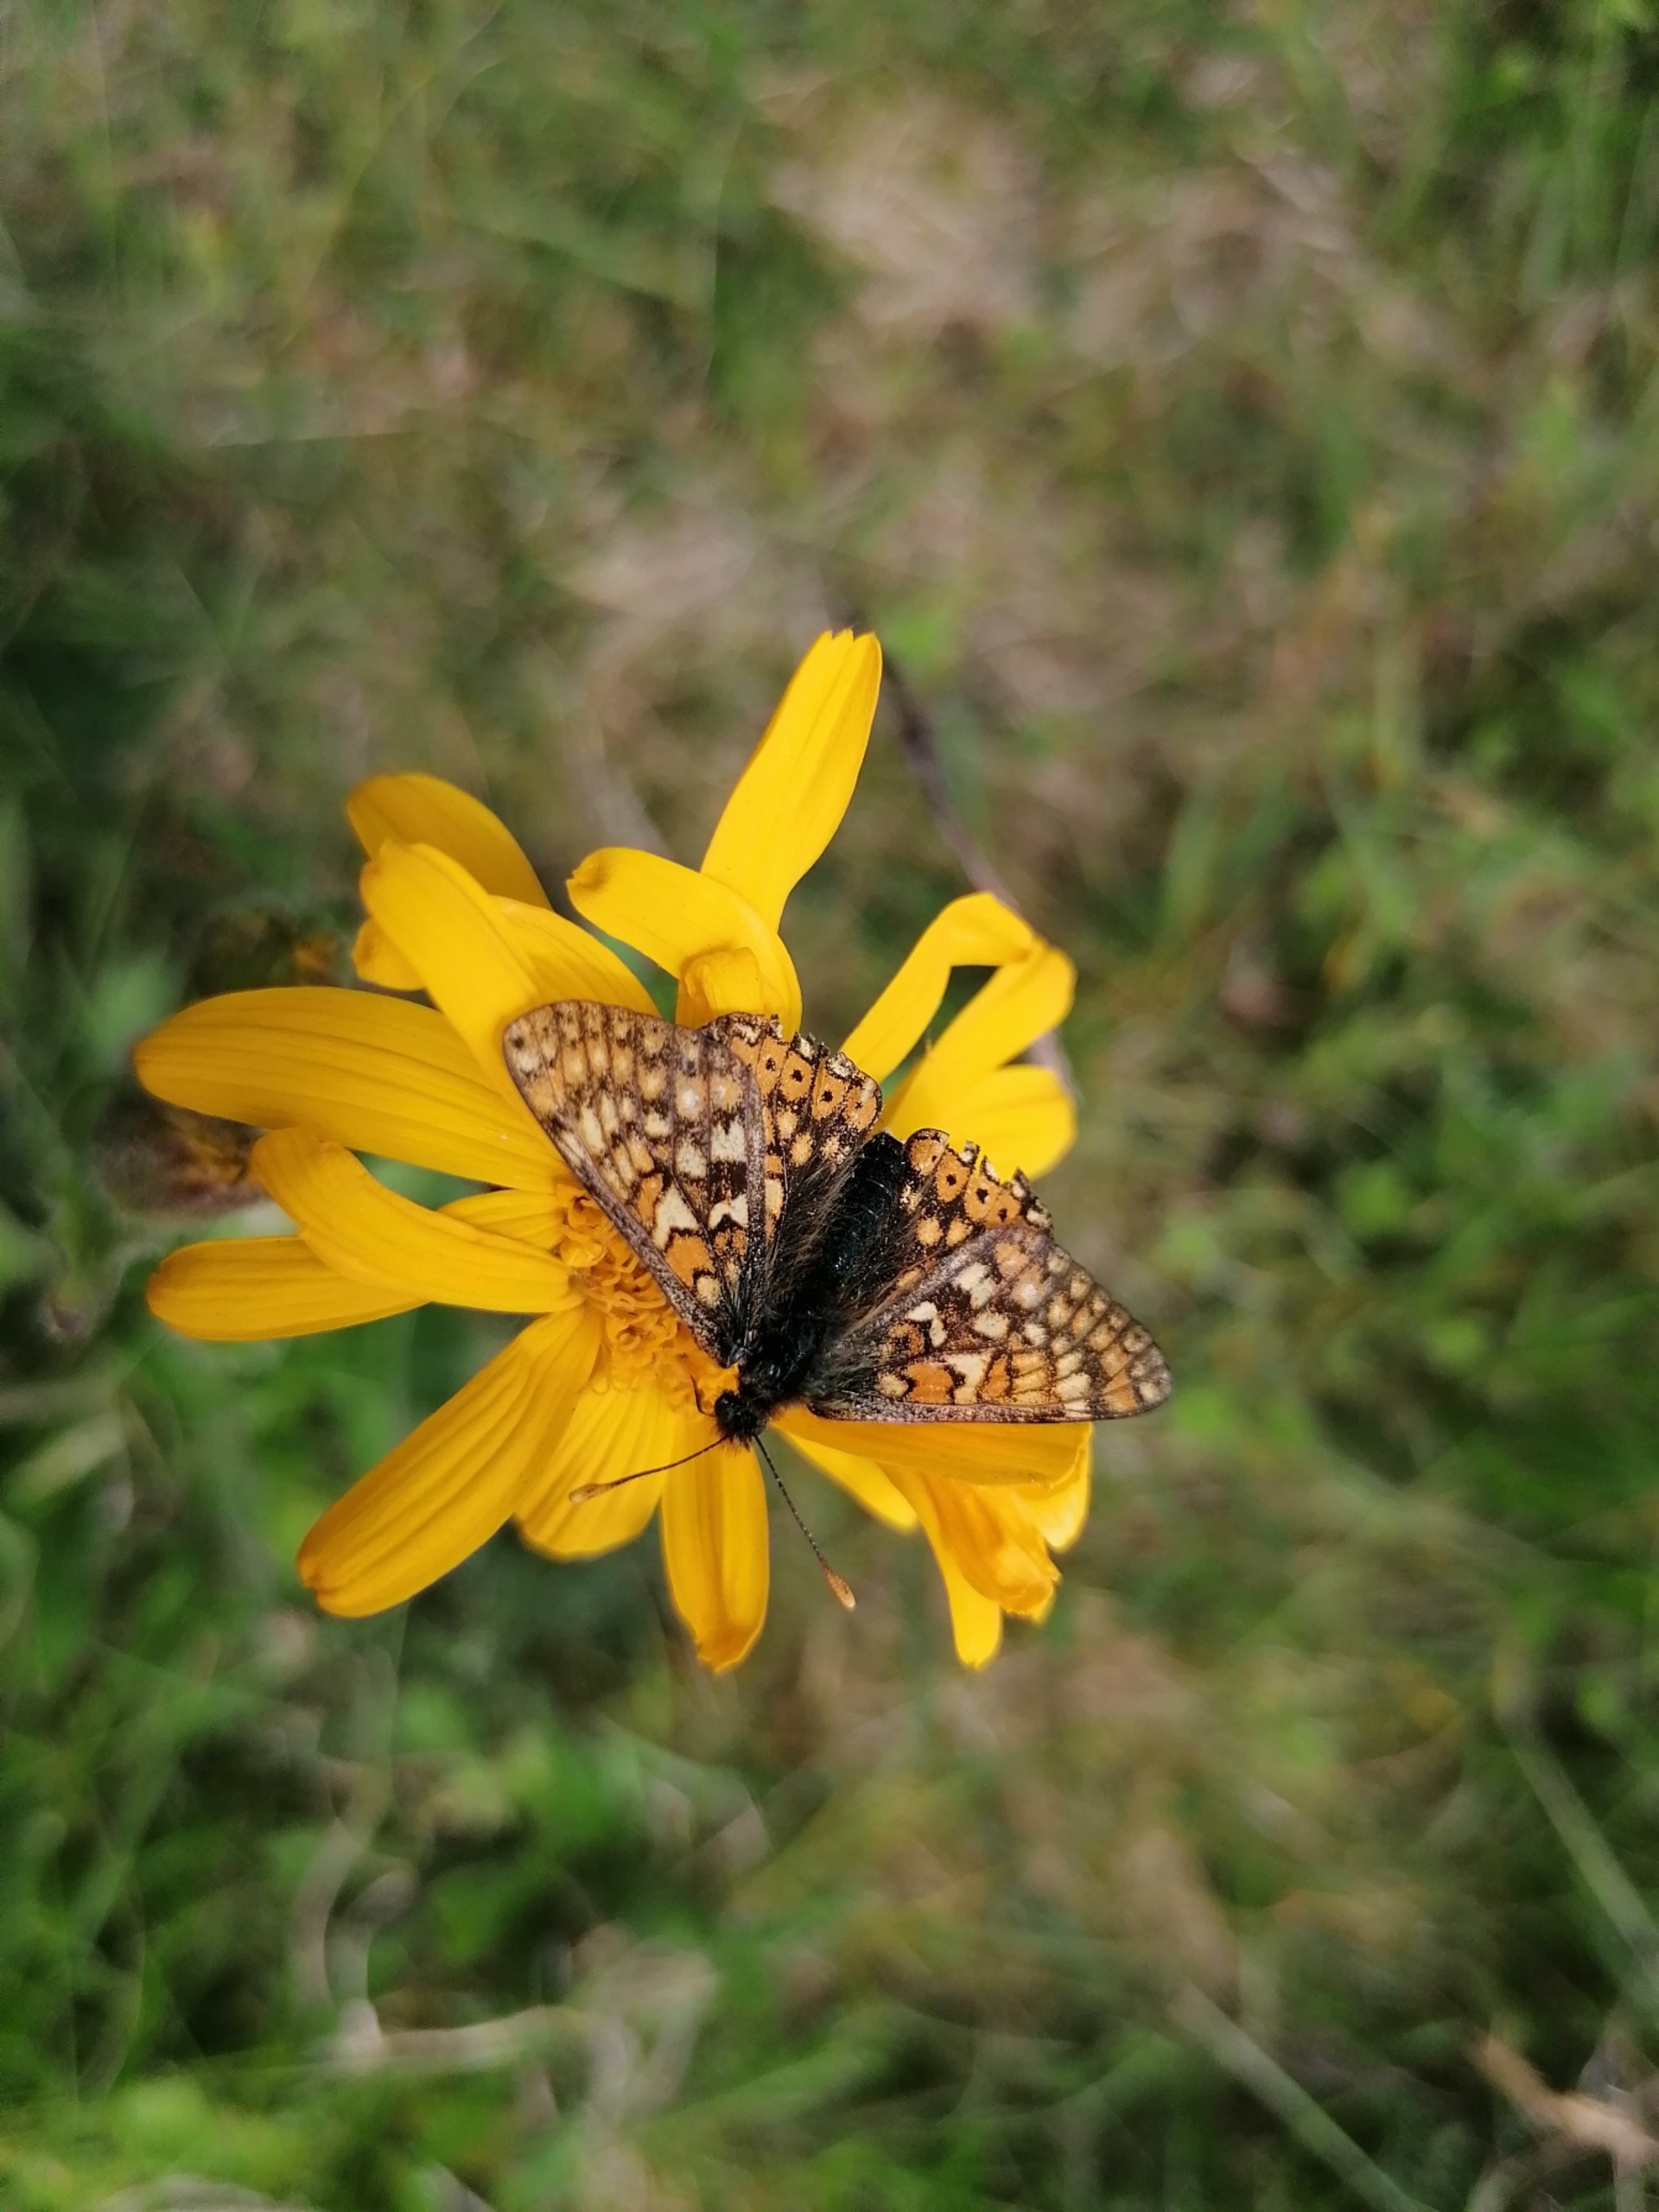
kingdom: Animalia
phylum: Arthropoda
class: Insecta
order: Lepidoptera
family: Nymphalidae
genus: Euphydryas
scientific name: Euphydryas aurinia
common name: Hedepletvinge
